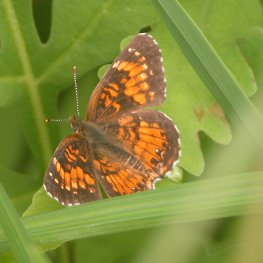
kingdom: Animalia
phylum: Arthropoda
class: Insecta
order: Lepidoptera
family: Nymphalidae
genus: Chlosyne
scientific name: Chlosyne harrisii
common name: Harris's Checkerspot
